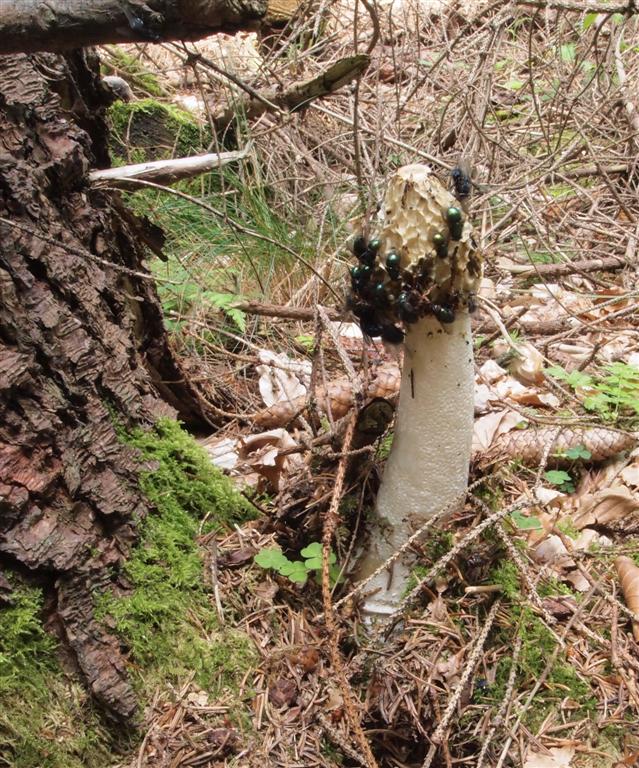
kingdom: Fungi
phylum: Basidiomycota
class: Agaricomycetes
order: Phallales
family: Phallaceae
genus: Phallus
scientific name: Phallus impudicus
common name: almindelig stinksvamp
